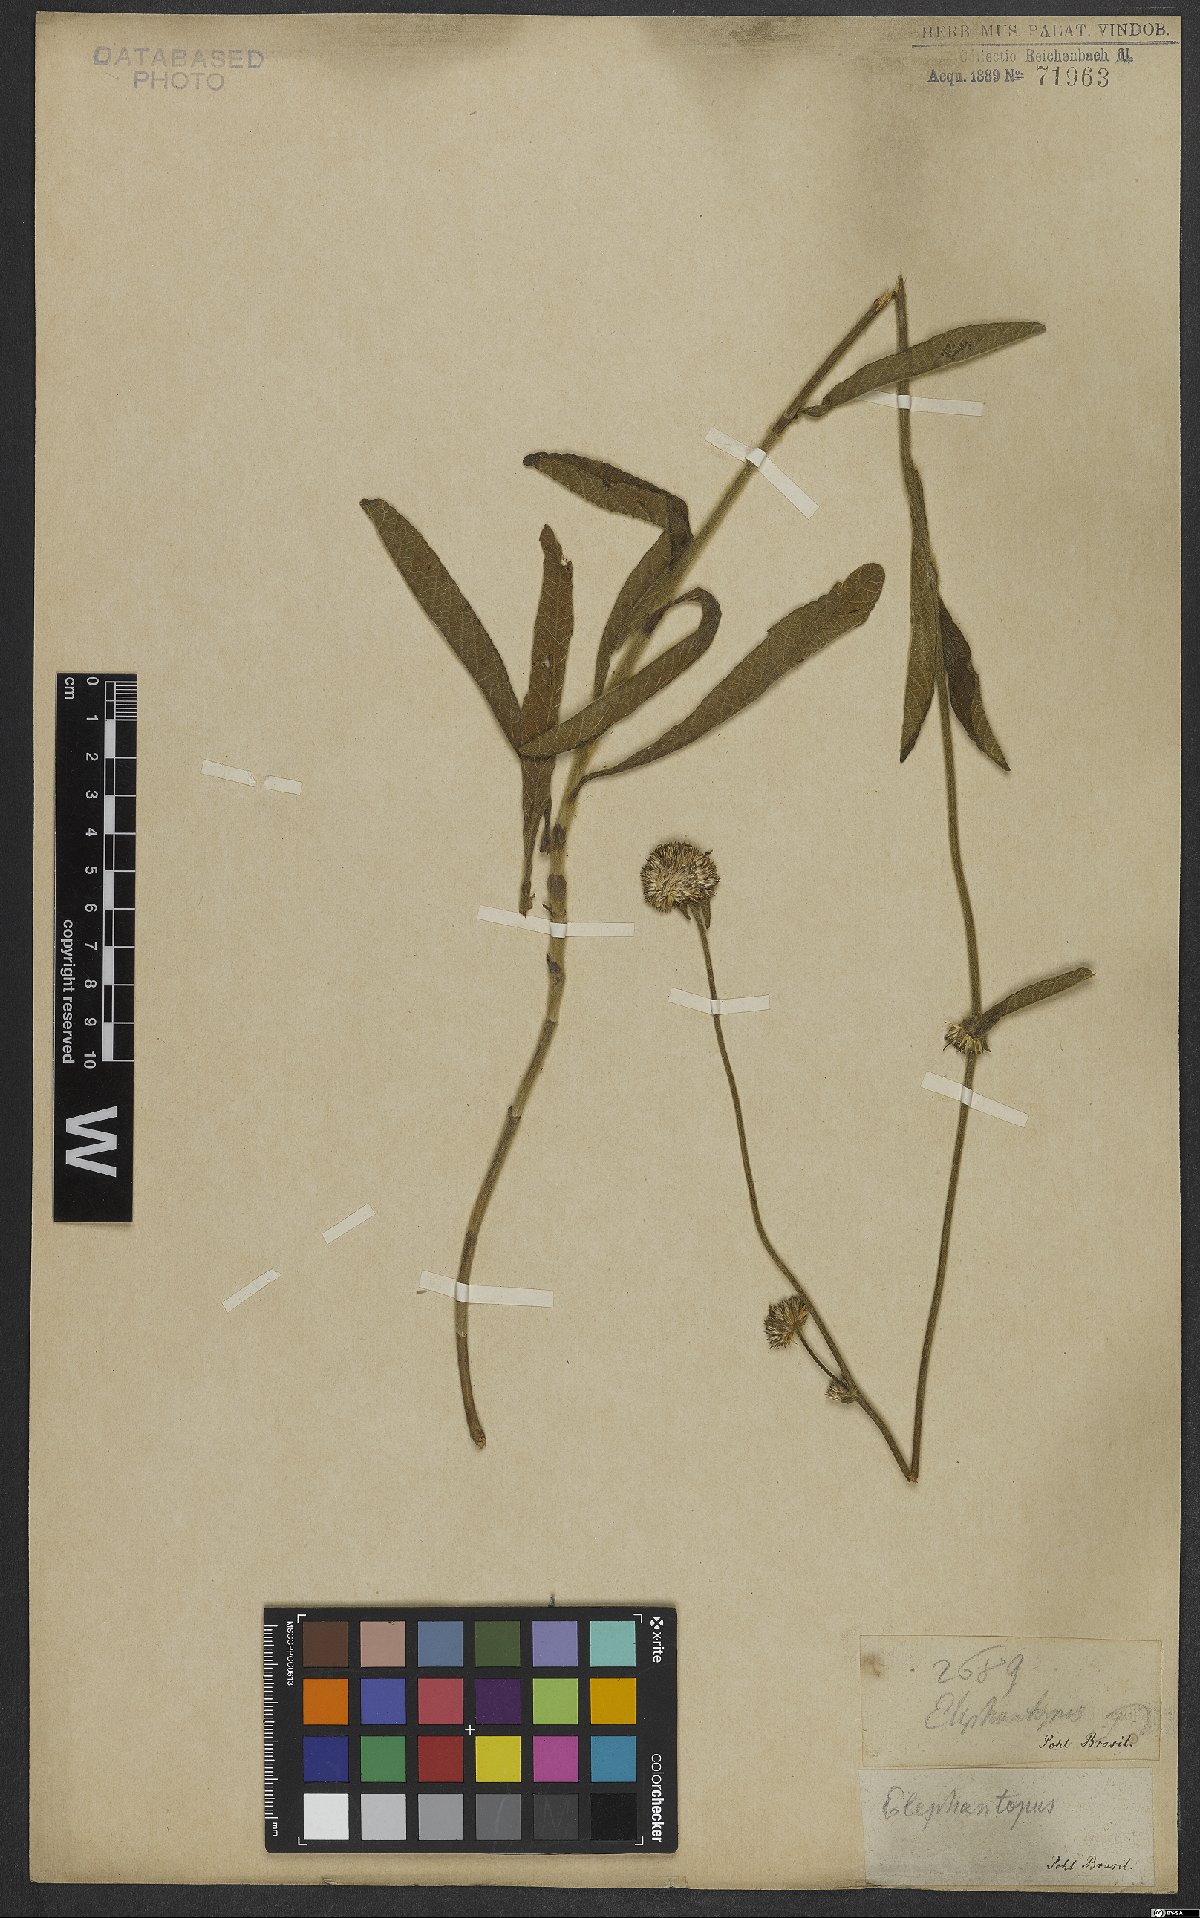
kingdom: Plantae
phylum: Tracheophyta
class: Magnoliopsida
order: Asterales
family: Asteraceae
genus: Elephantopus
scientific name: Elephantopus
